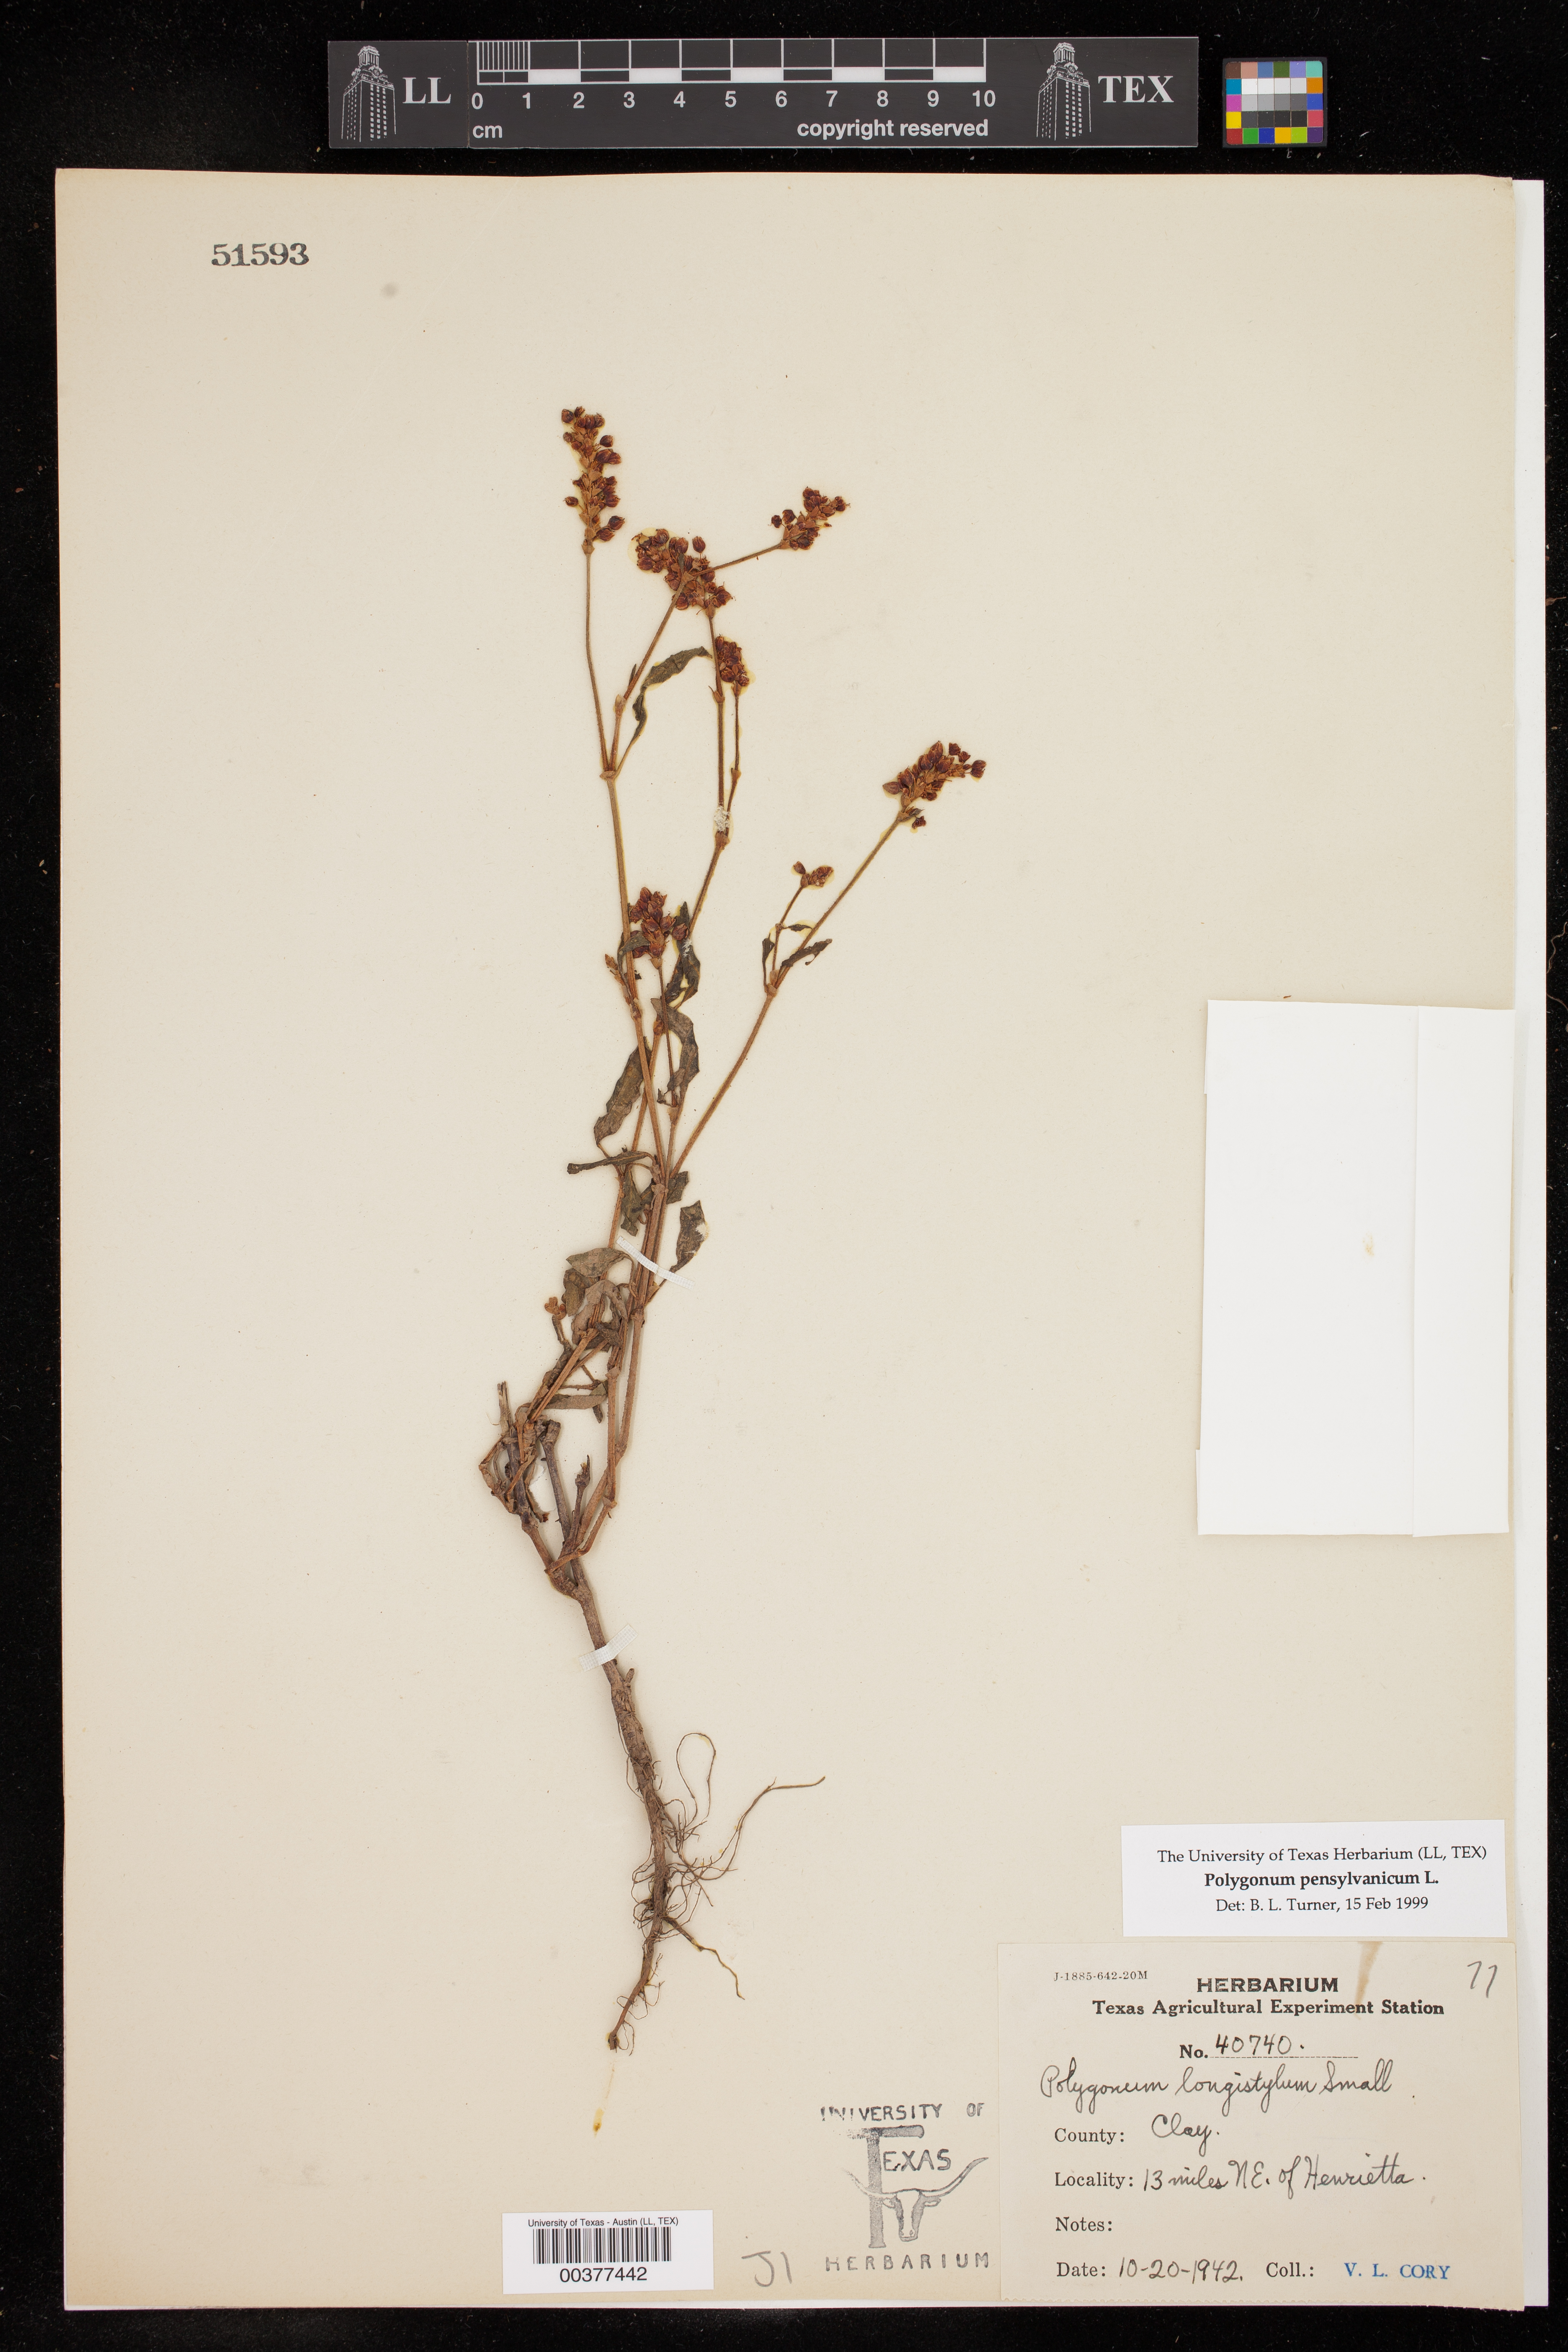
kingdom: Plantae
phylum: Tracheophyta
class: Magnoliopsida
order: Caryophyllales
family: Polygonaceae
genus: Persicaria
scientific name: Persicaria pensylvanica
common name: Pinkweed
